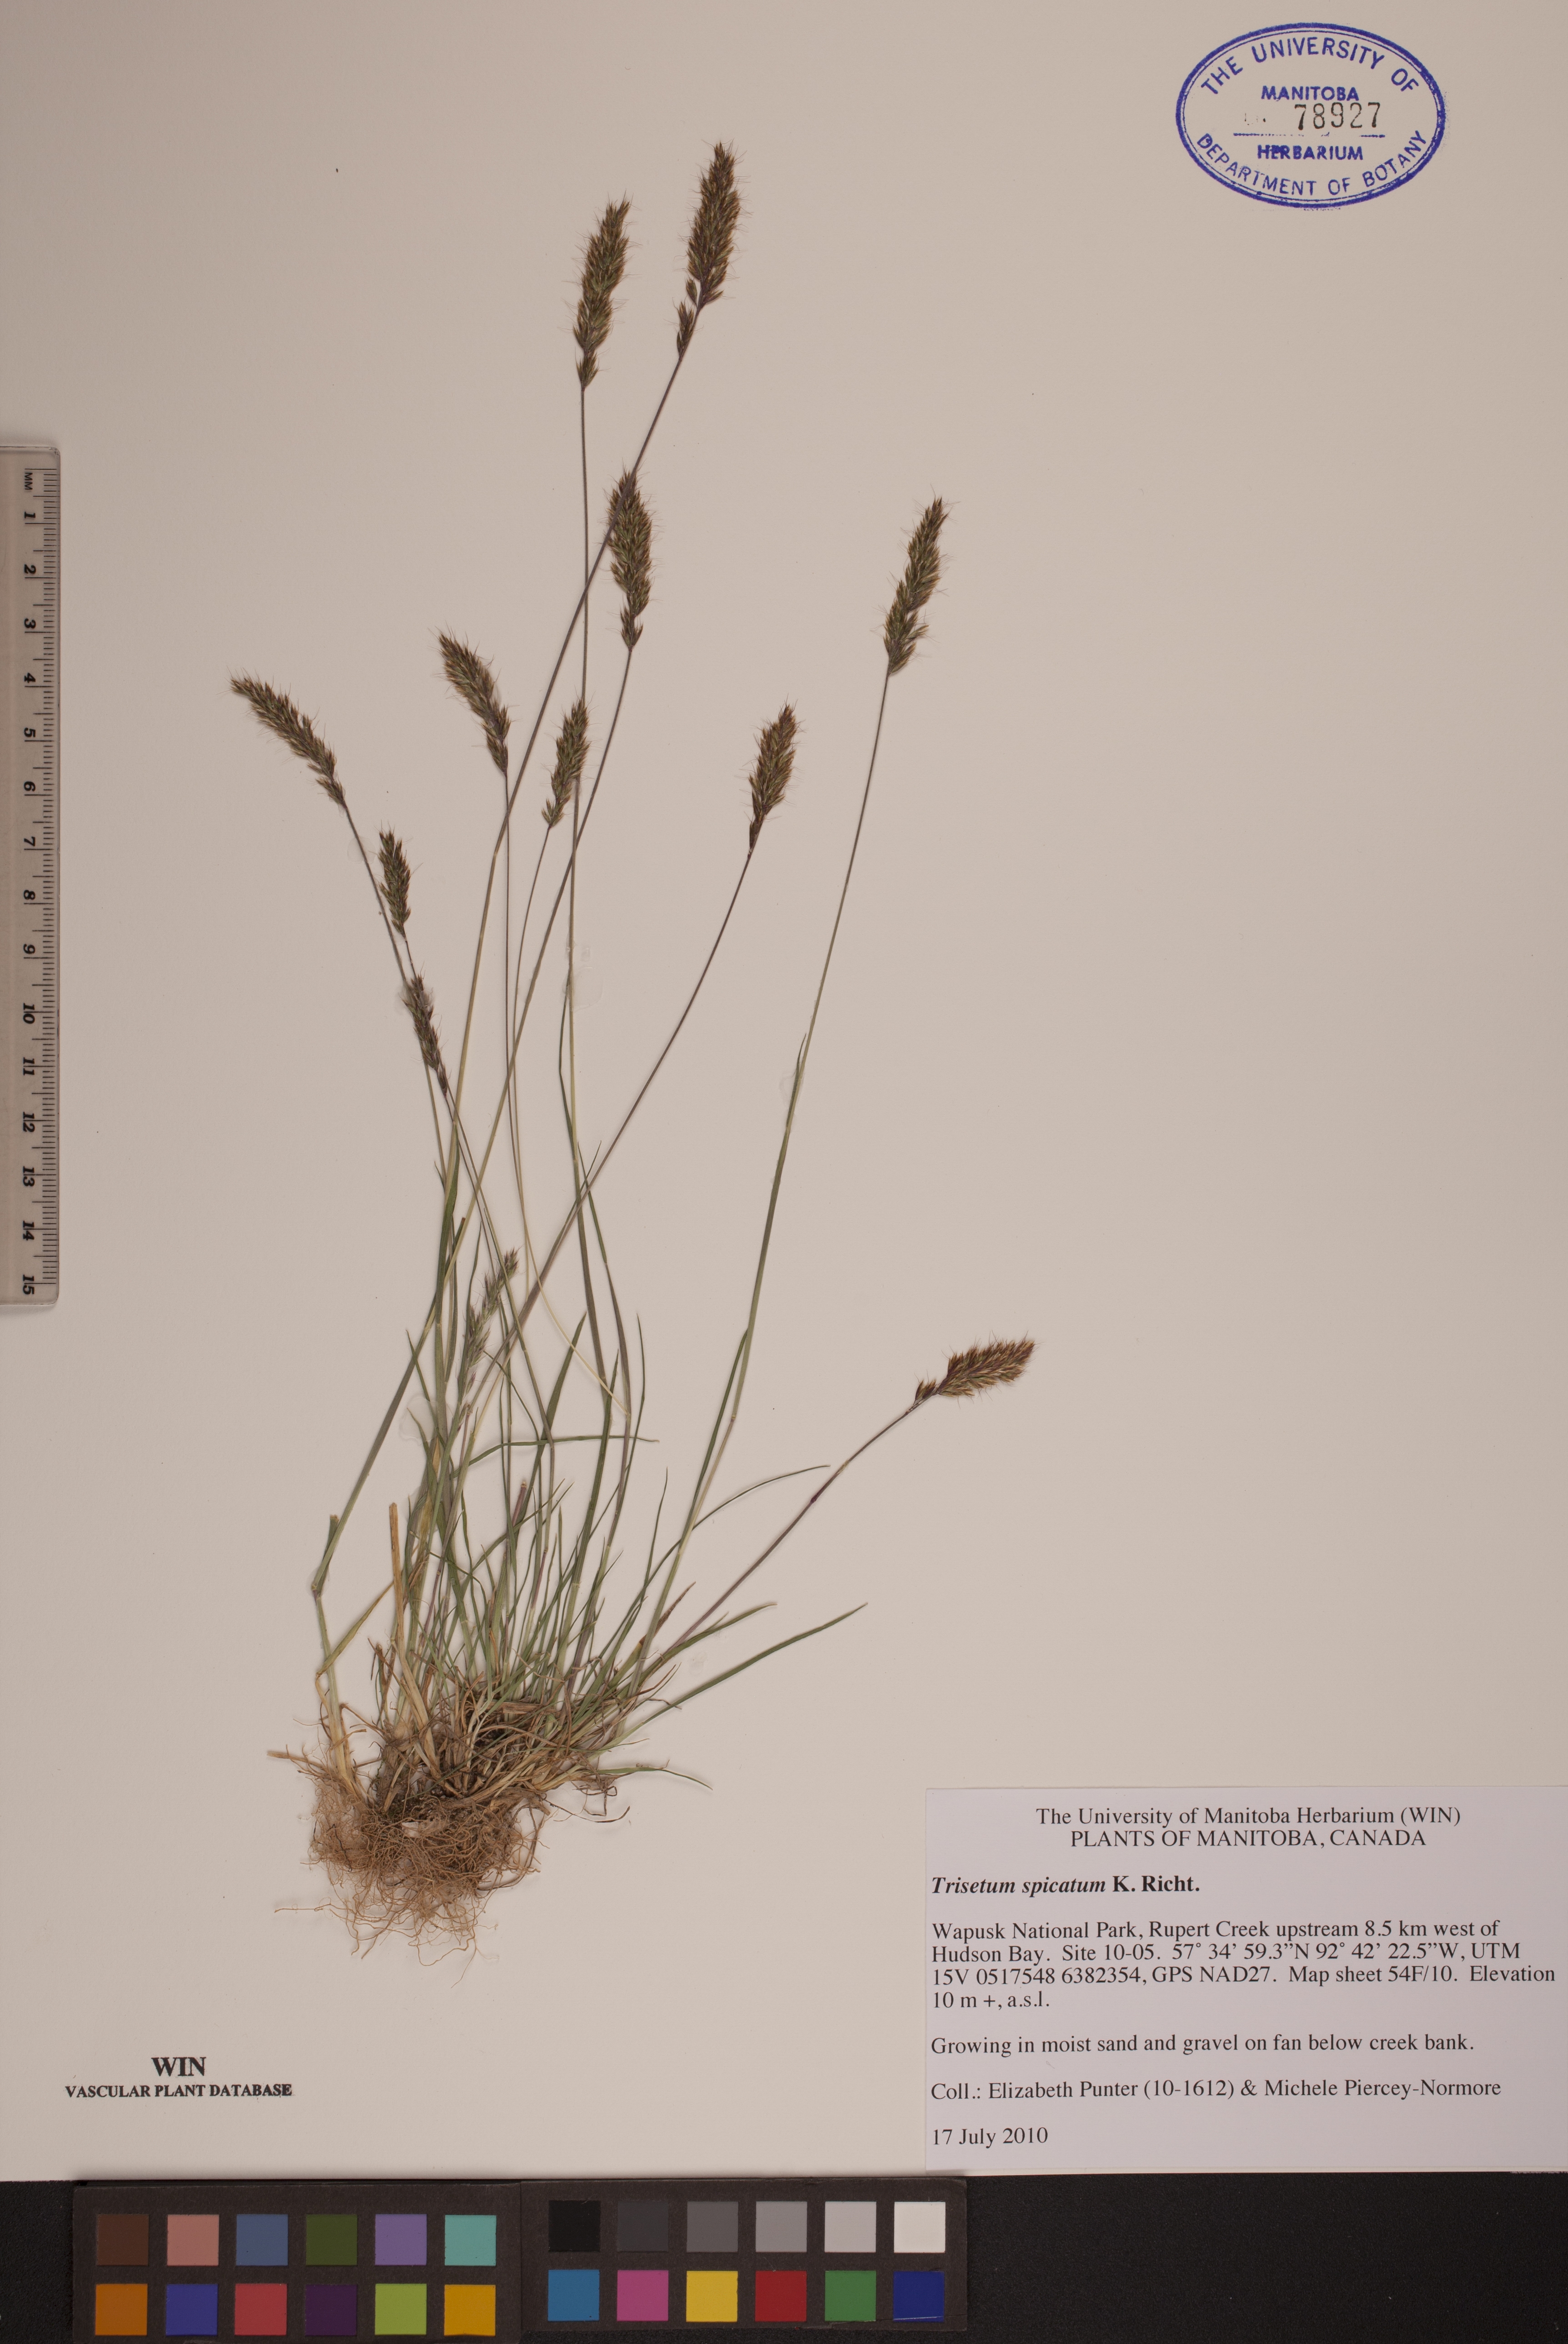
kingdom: Plantae
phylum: Tracheophyta
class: Liliopsida
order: Poales
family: Poaceae
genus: Koeleria
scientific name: Koeleria spicata
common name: Mountain trisetum
